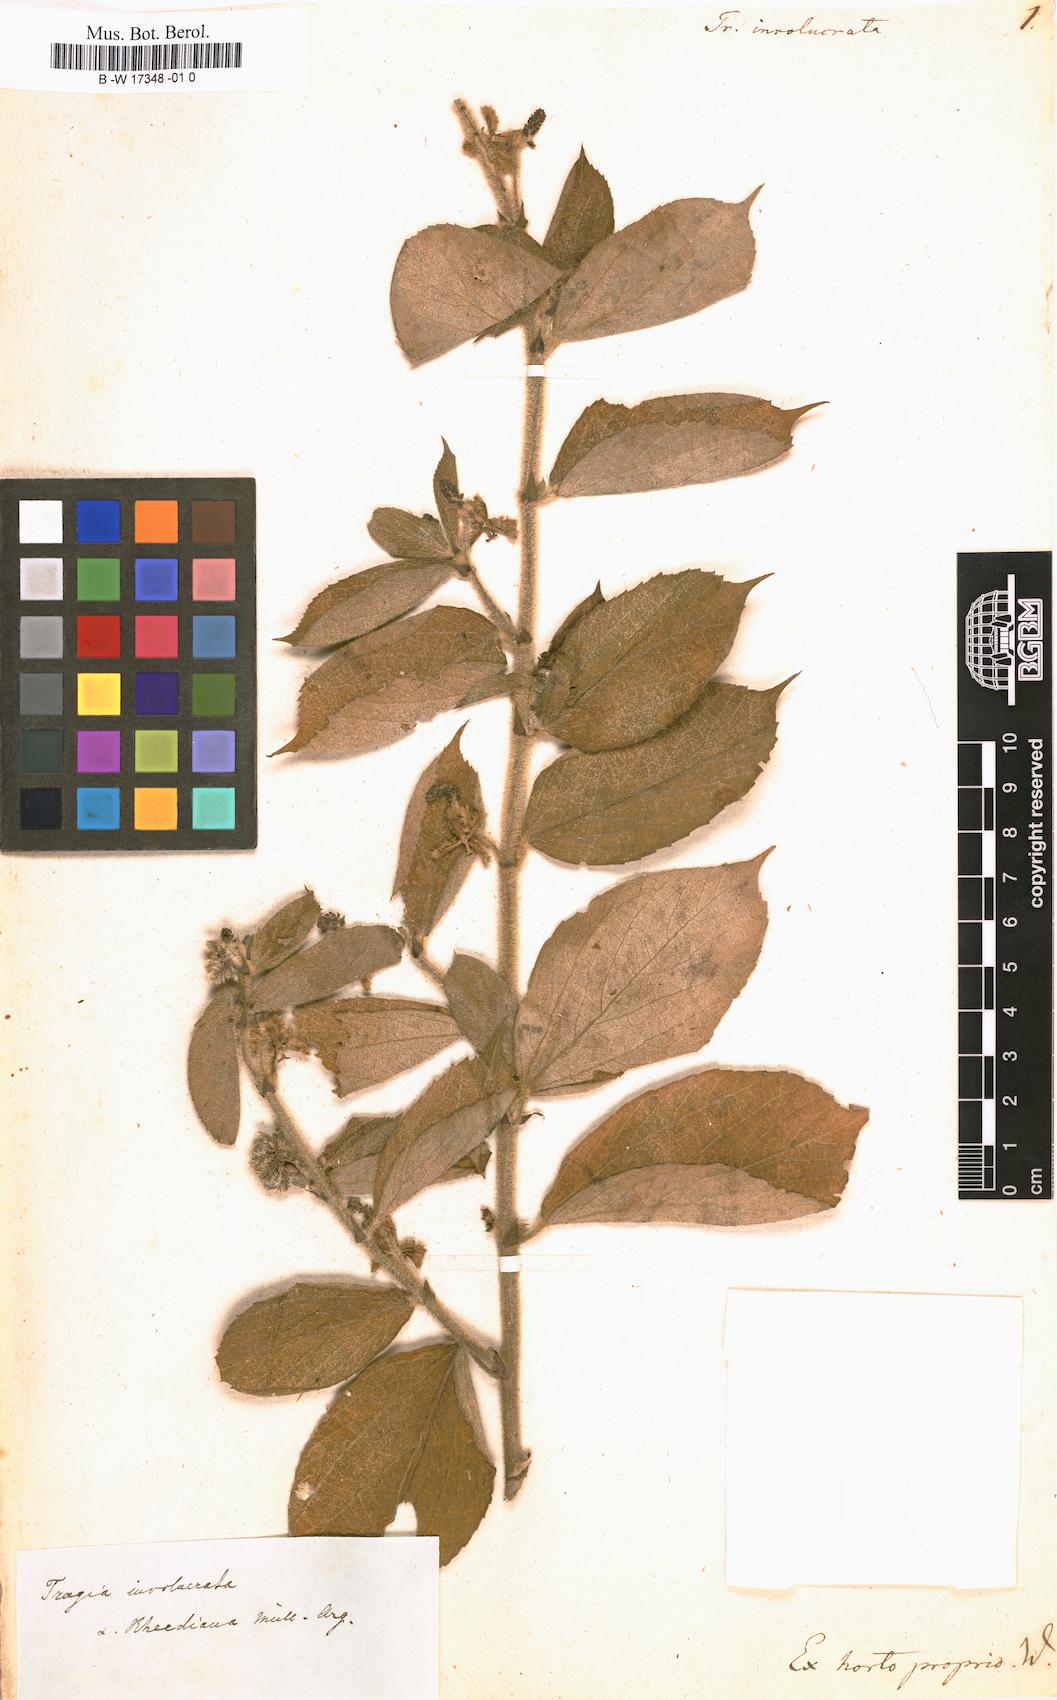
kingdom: Plantae
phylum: Tracheophyta
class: Magnoliopsida
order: Malpighiales
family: Euphorbiaceae
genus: Tragia
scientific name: Tragia involucrata
